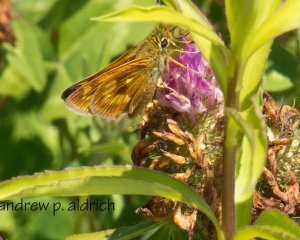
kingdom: Animalia
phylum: Arthropoda
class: Insecta
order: Lepidoptera
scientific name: Lepidoptera
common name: Butterflies
